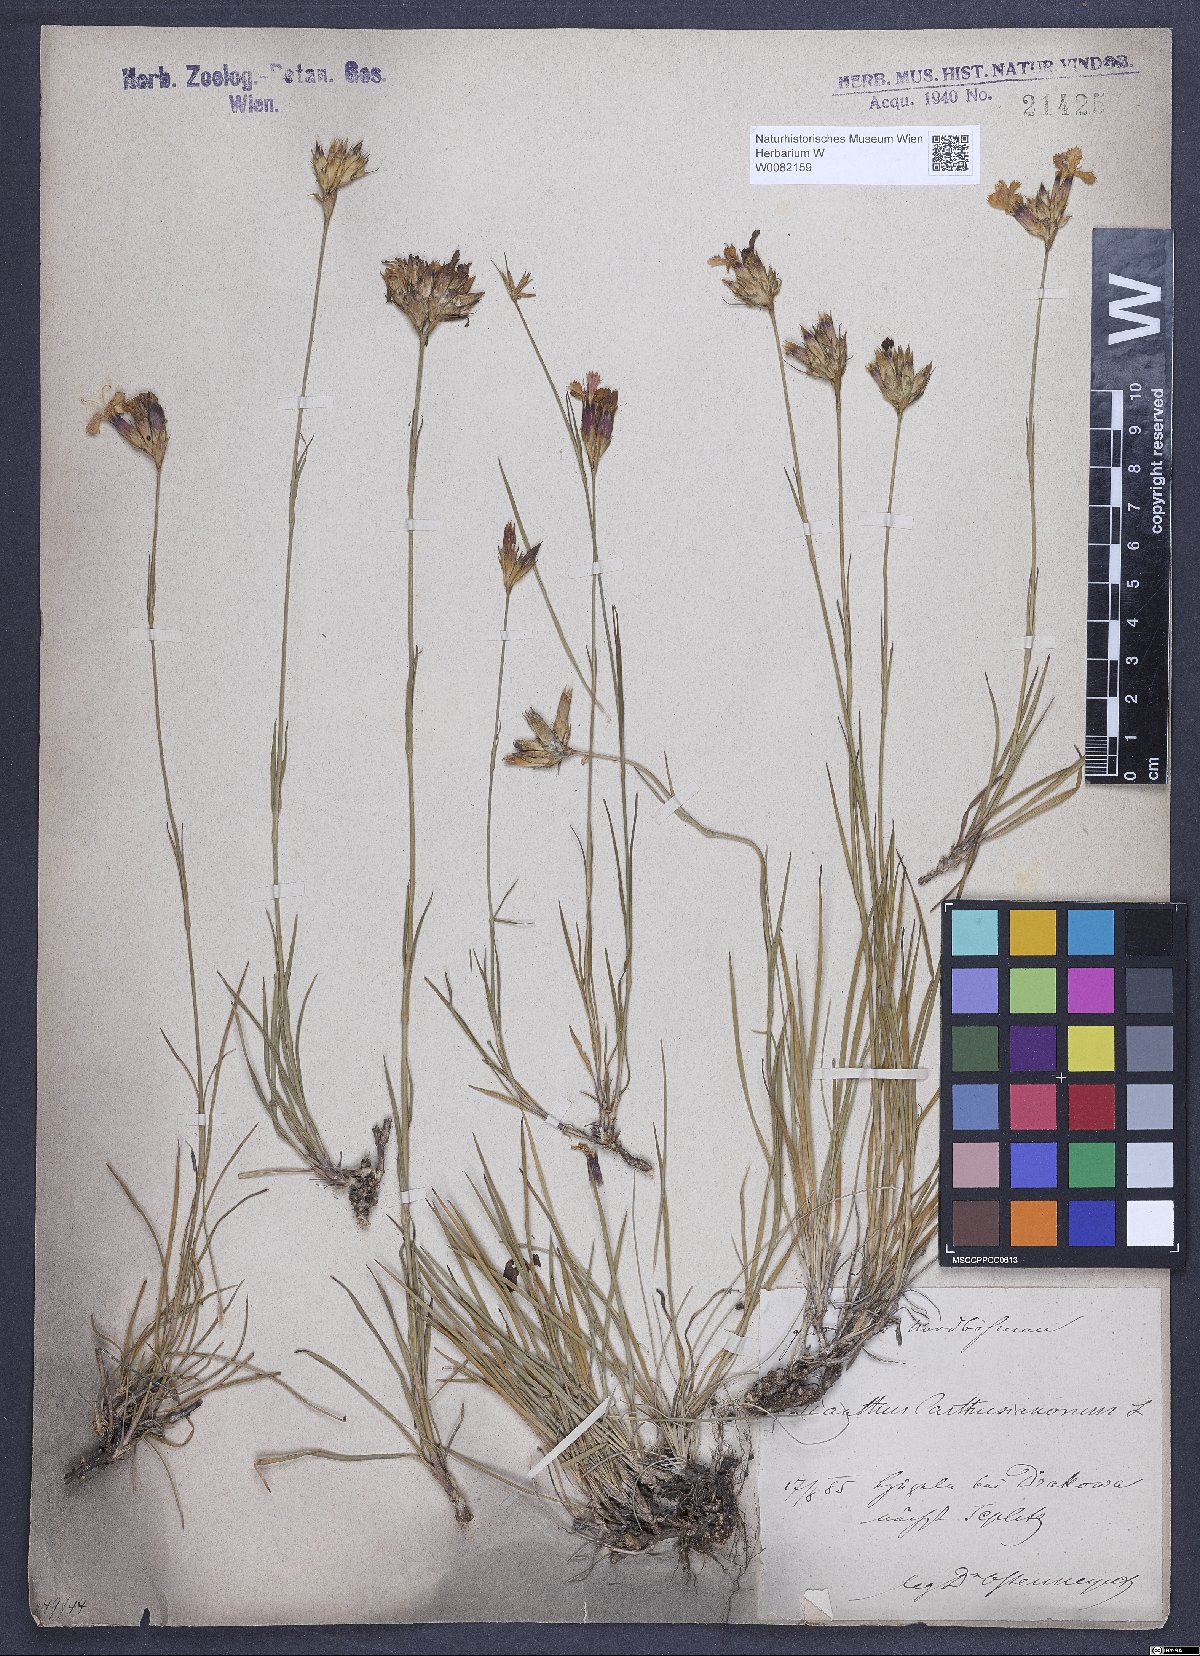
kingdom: Plantae
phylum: Tracheophyta
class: Magnoliopsida
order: Caryophyllales
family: Caryophyllaceae
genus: Dianthus
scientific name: Dianthus carthusianorum
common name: Carthusian pink
